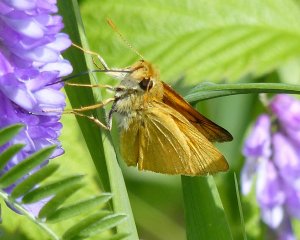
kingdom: Animalia
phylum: Arthropoda
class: Insecta
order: Lepidoptera
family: Hesperiidae
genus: Atrytone
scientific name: Atrytone delaware
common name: Delaware Skipper
